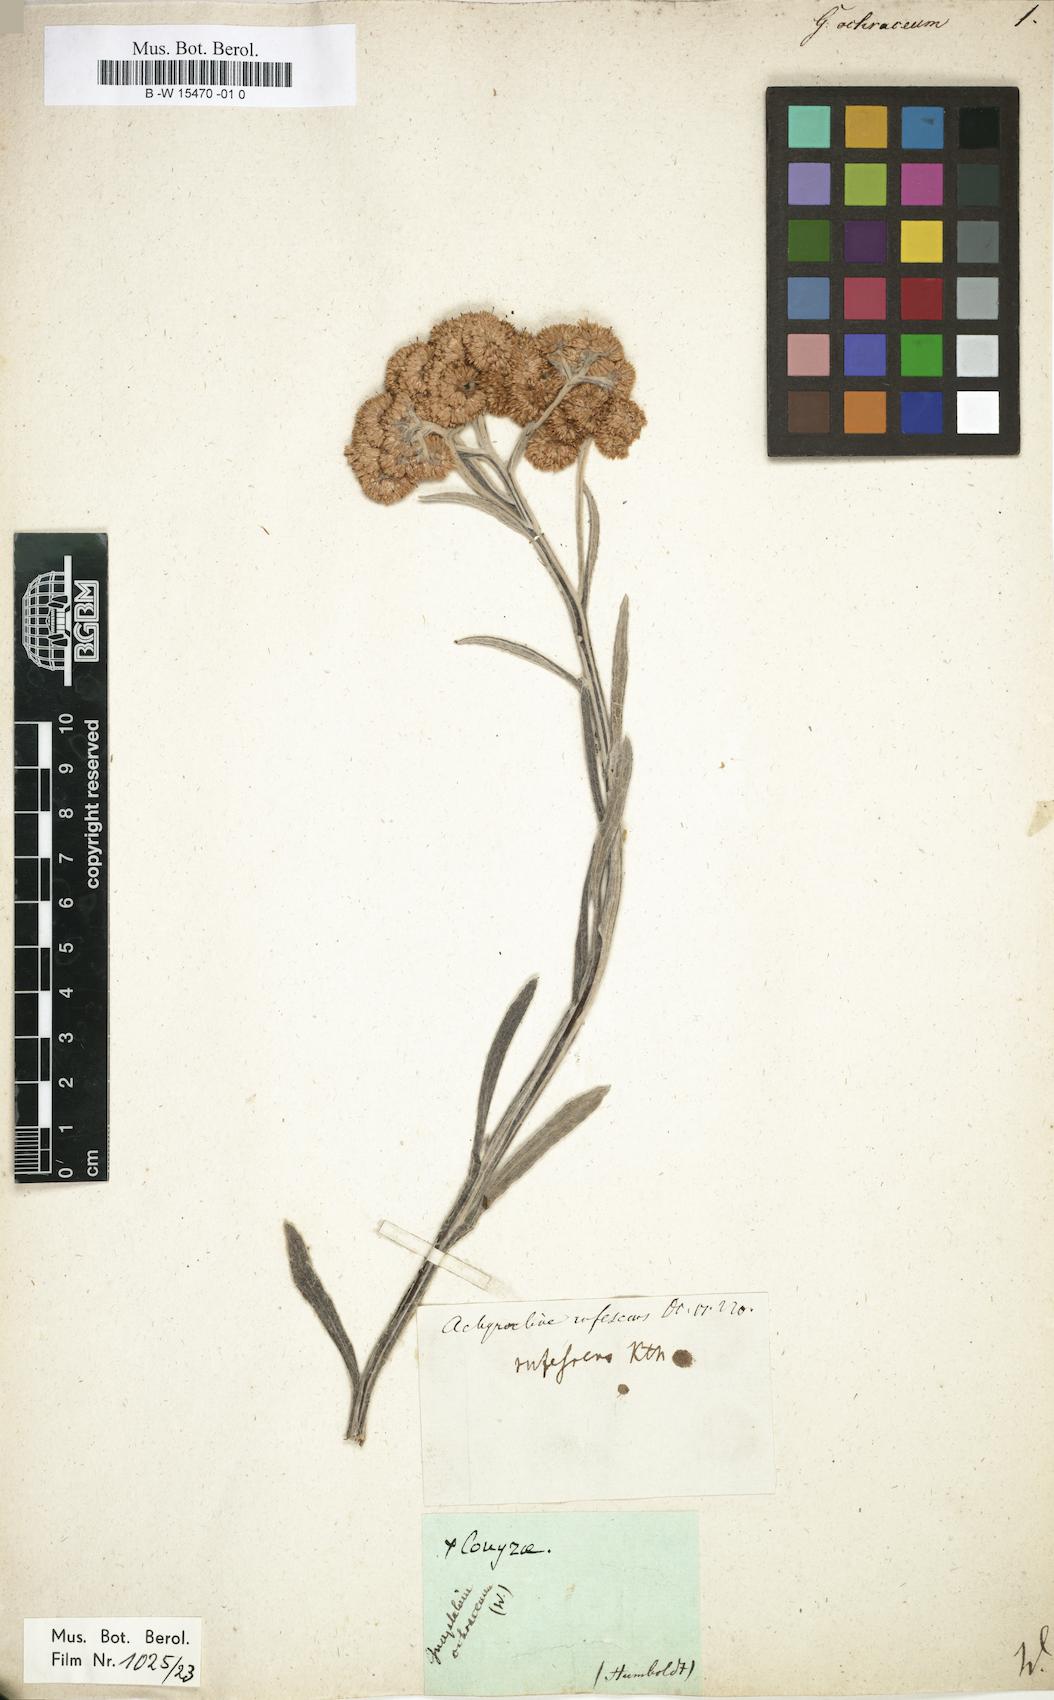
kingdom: Plantae
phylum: Tracheophyta
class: Magnoliopsida
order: Asterales
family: Asteraceae
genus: Gnaphalium
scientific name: Gnaphalium
